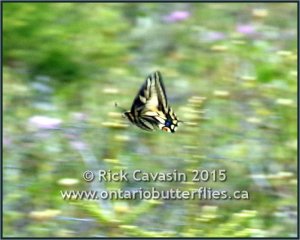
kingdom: Animalia
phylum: Arthropoda
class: Insecta
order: Lepidoptera
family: Papilionidae
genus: Papilio
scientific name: Papilio machaon
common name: Old World Swallowtail
